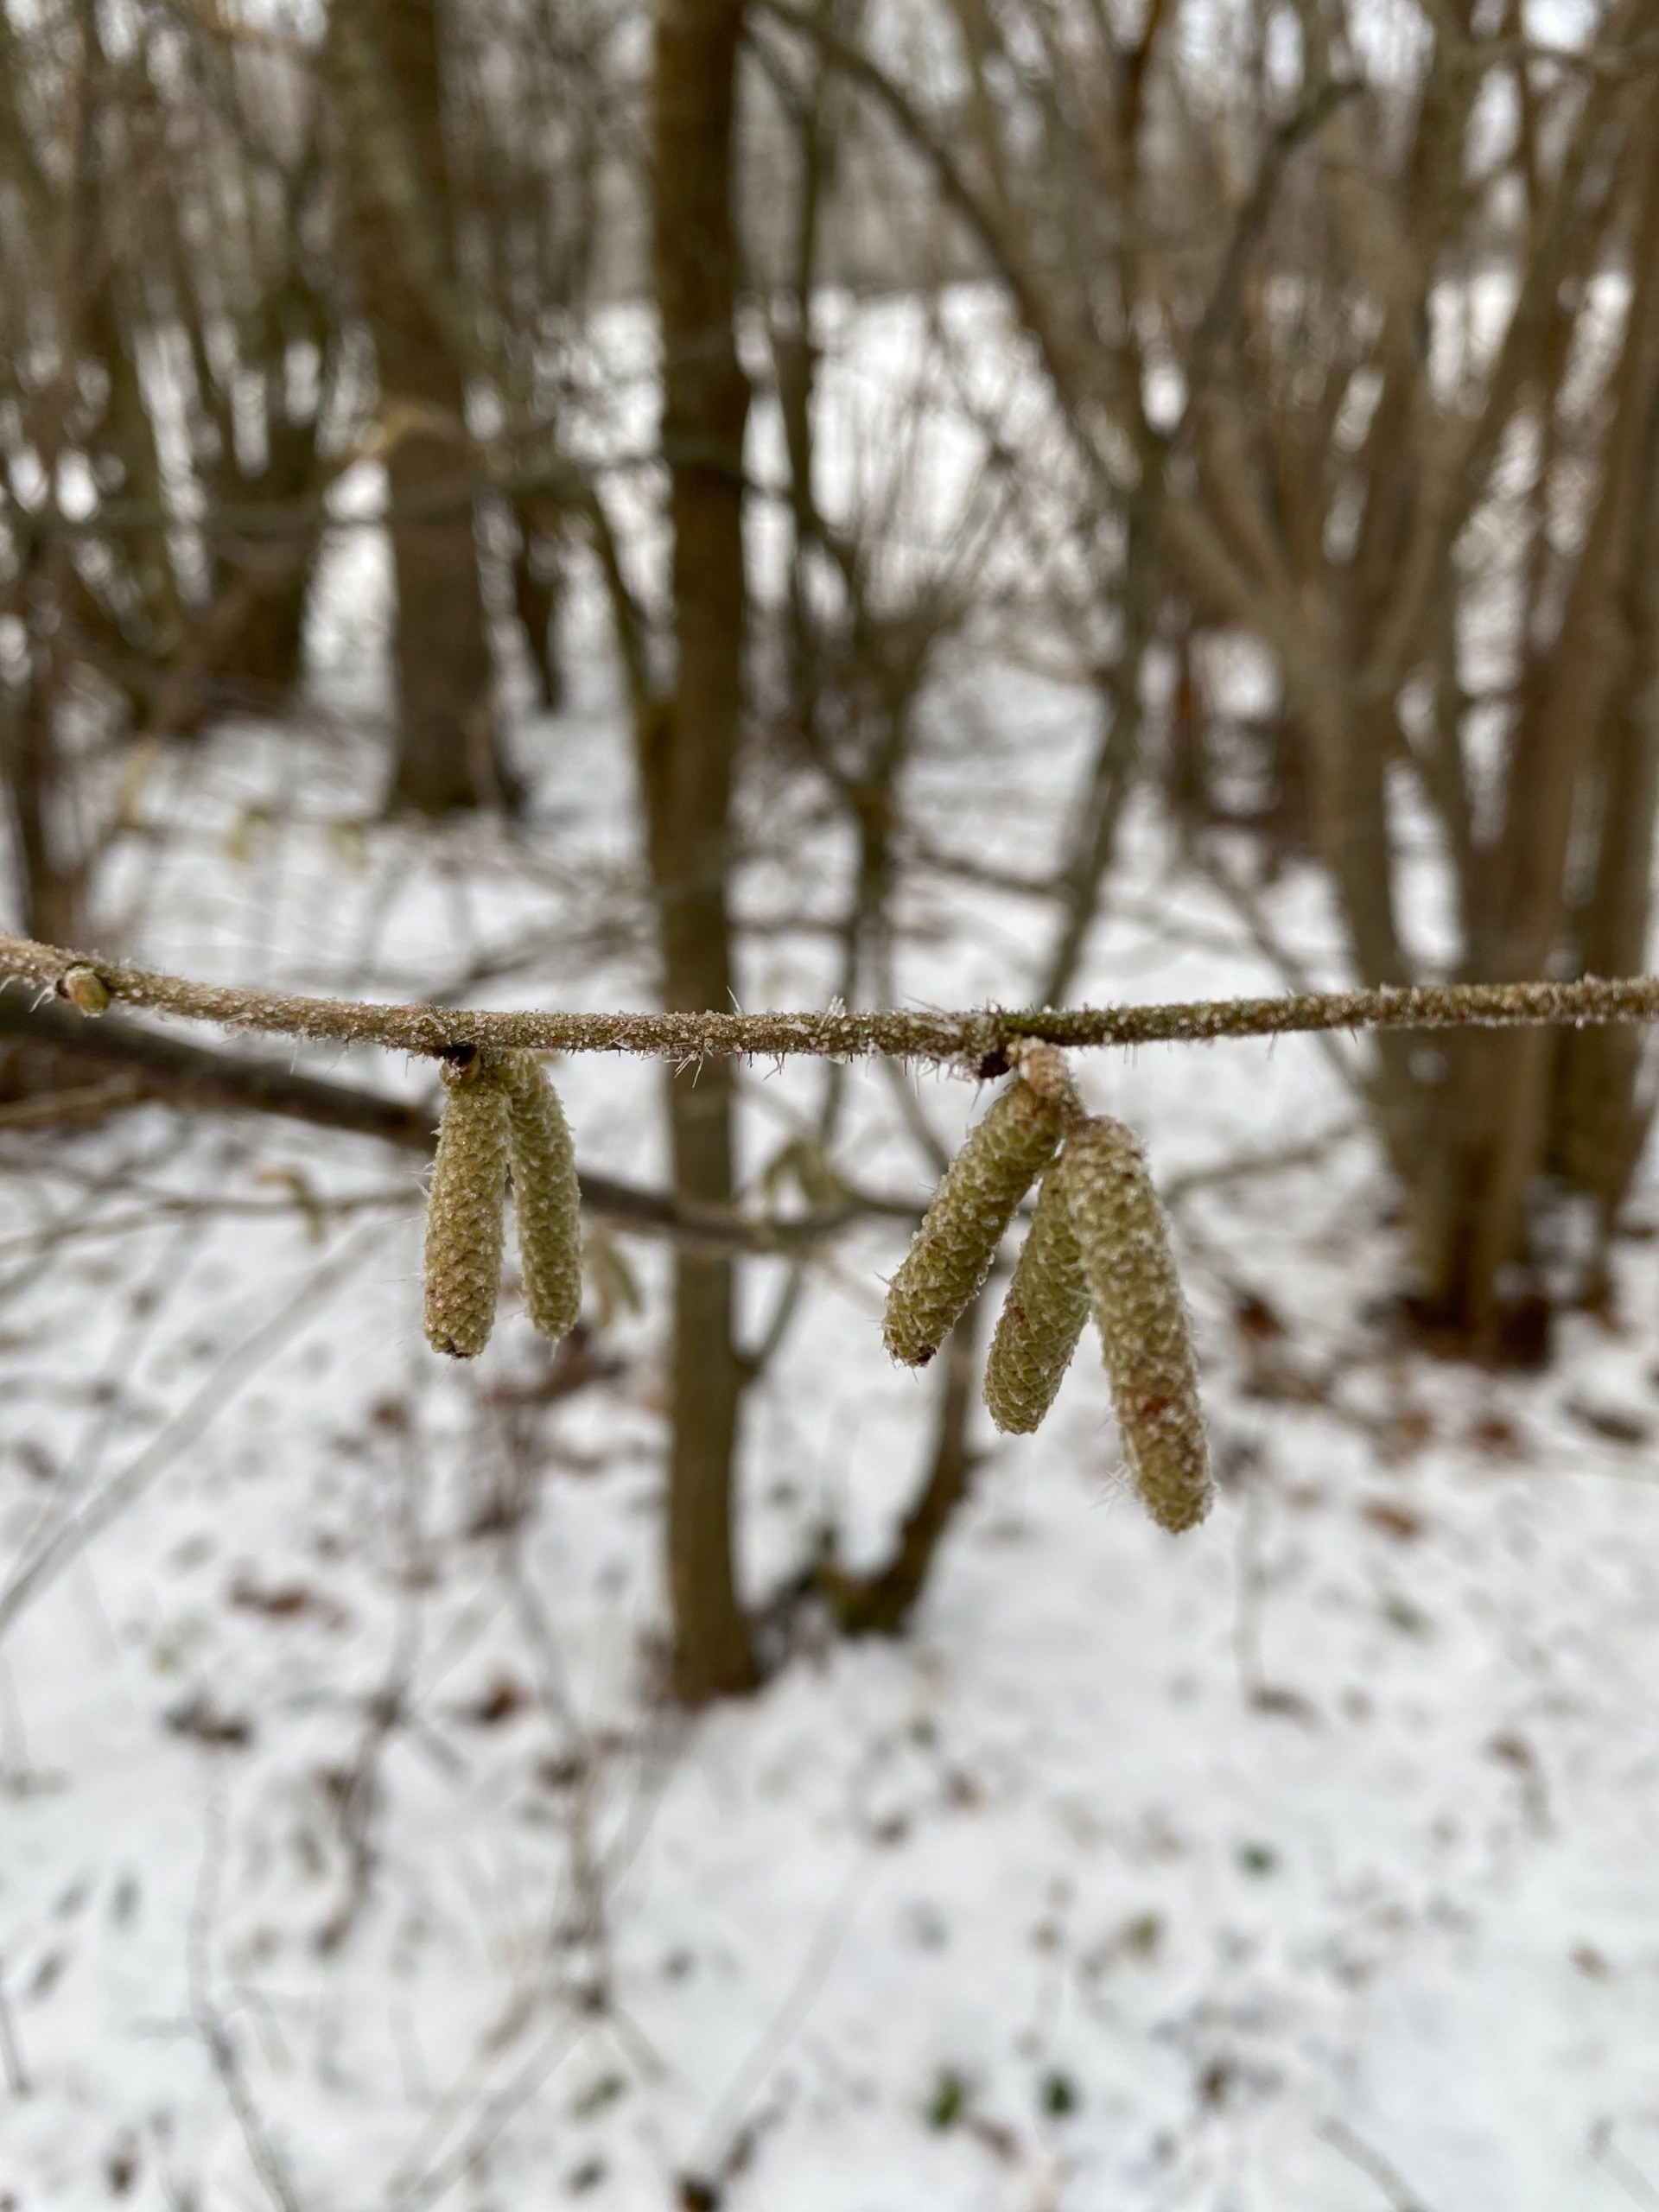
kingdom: Plantae
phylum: Tracheophyta
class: Magnoliopsida
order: Fagales
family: Betulaceae
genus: Corylus
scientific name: Corylus avellana
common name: Hassel
